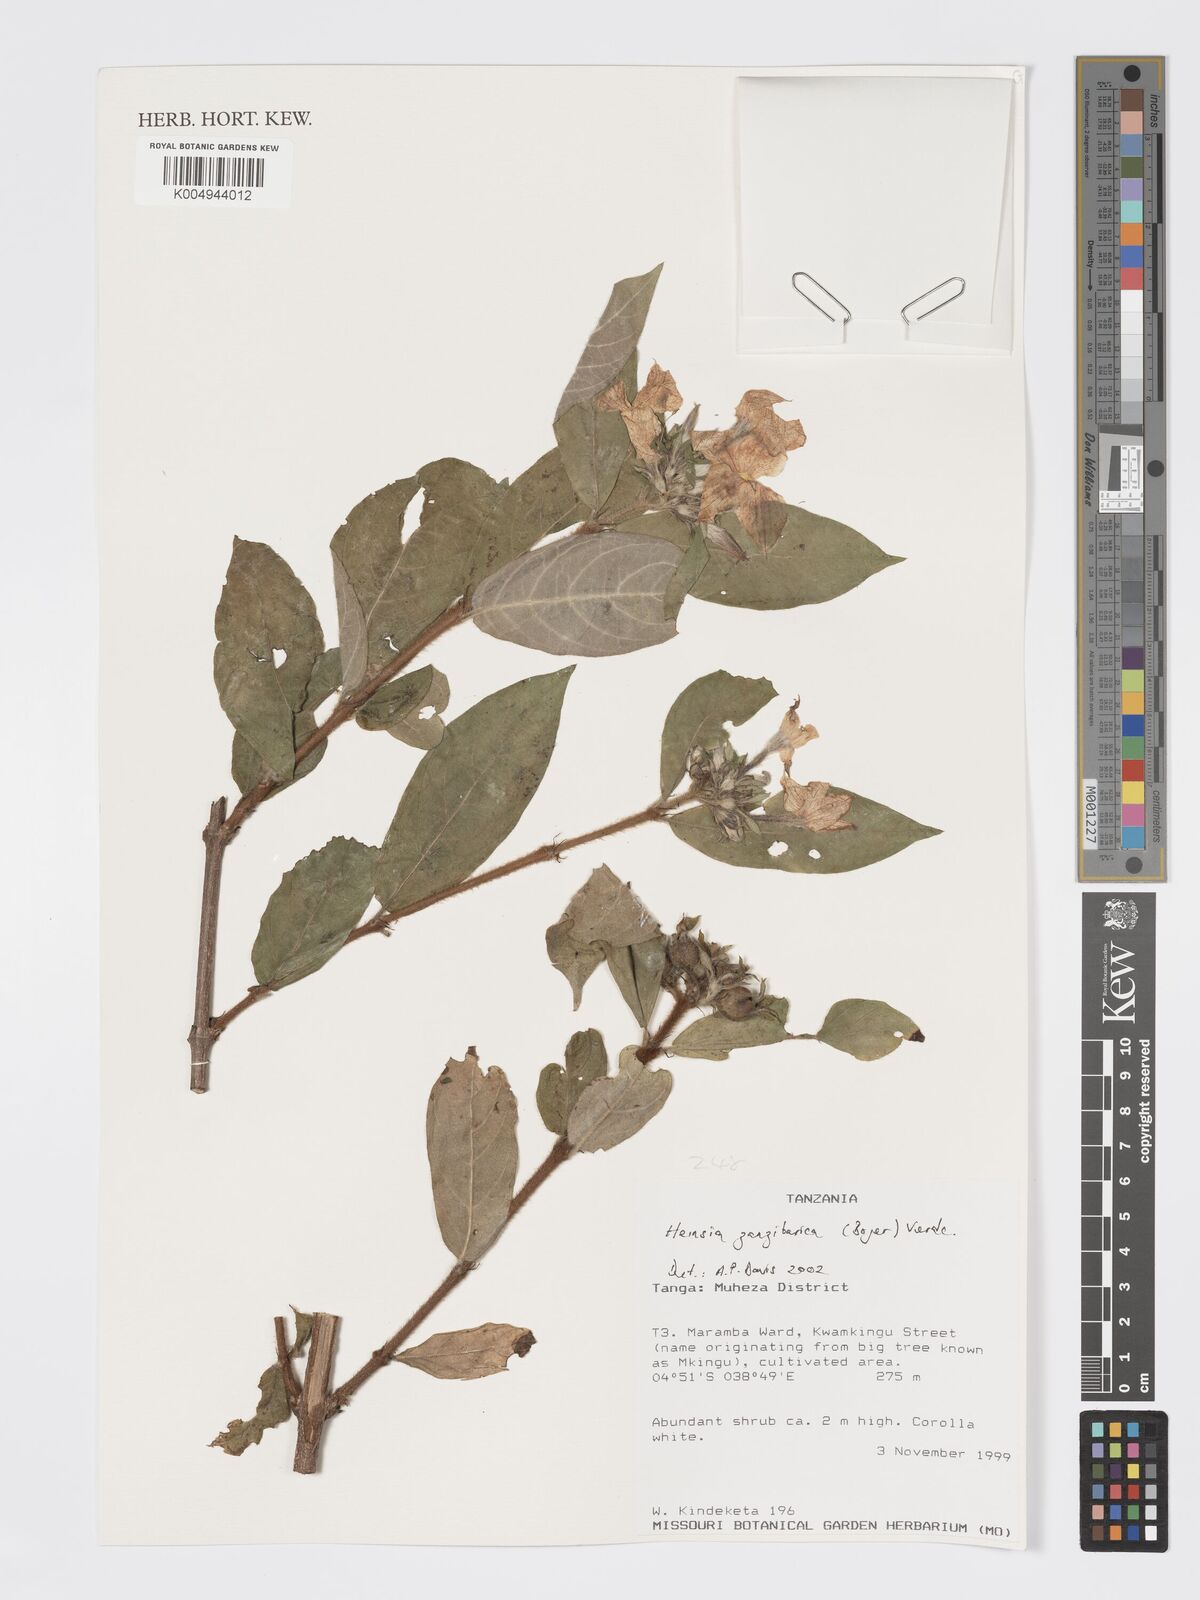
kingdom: Plantae
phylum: Tracheophyta
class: Magnoliopsida
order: Gentianales
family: Rubiaceae
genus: Heinsia
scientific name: Heinsia zanzibarica
